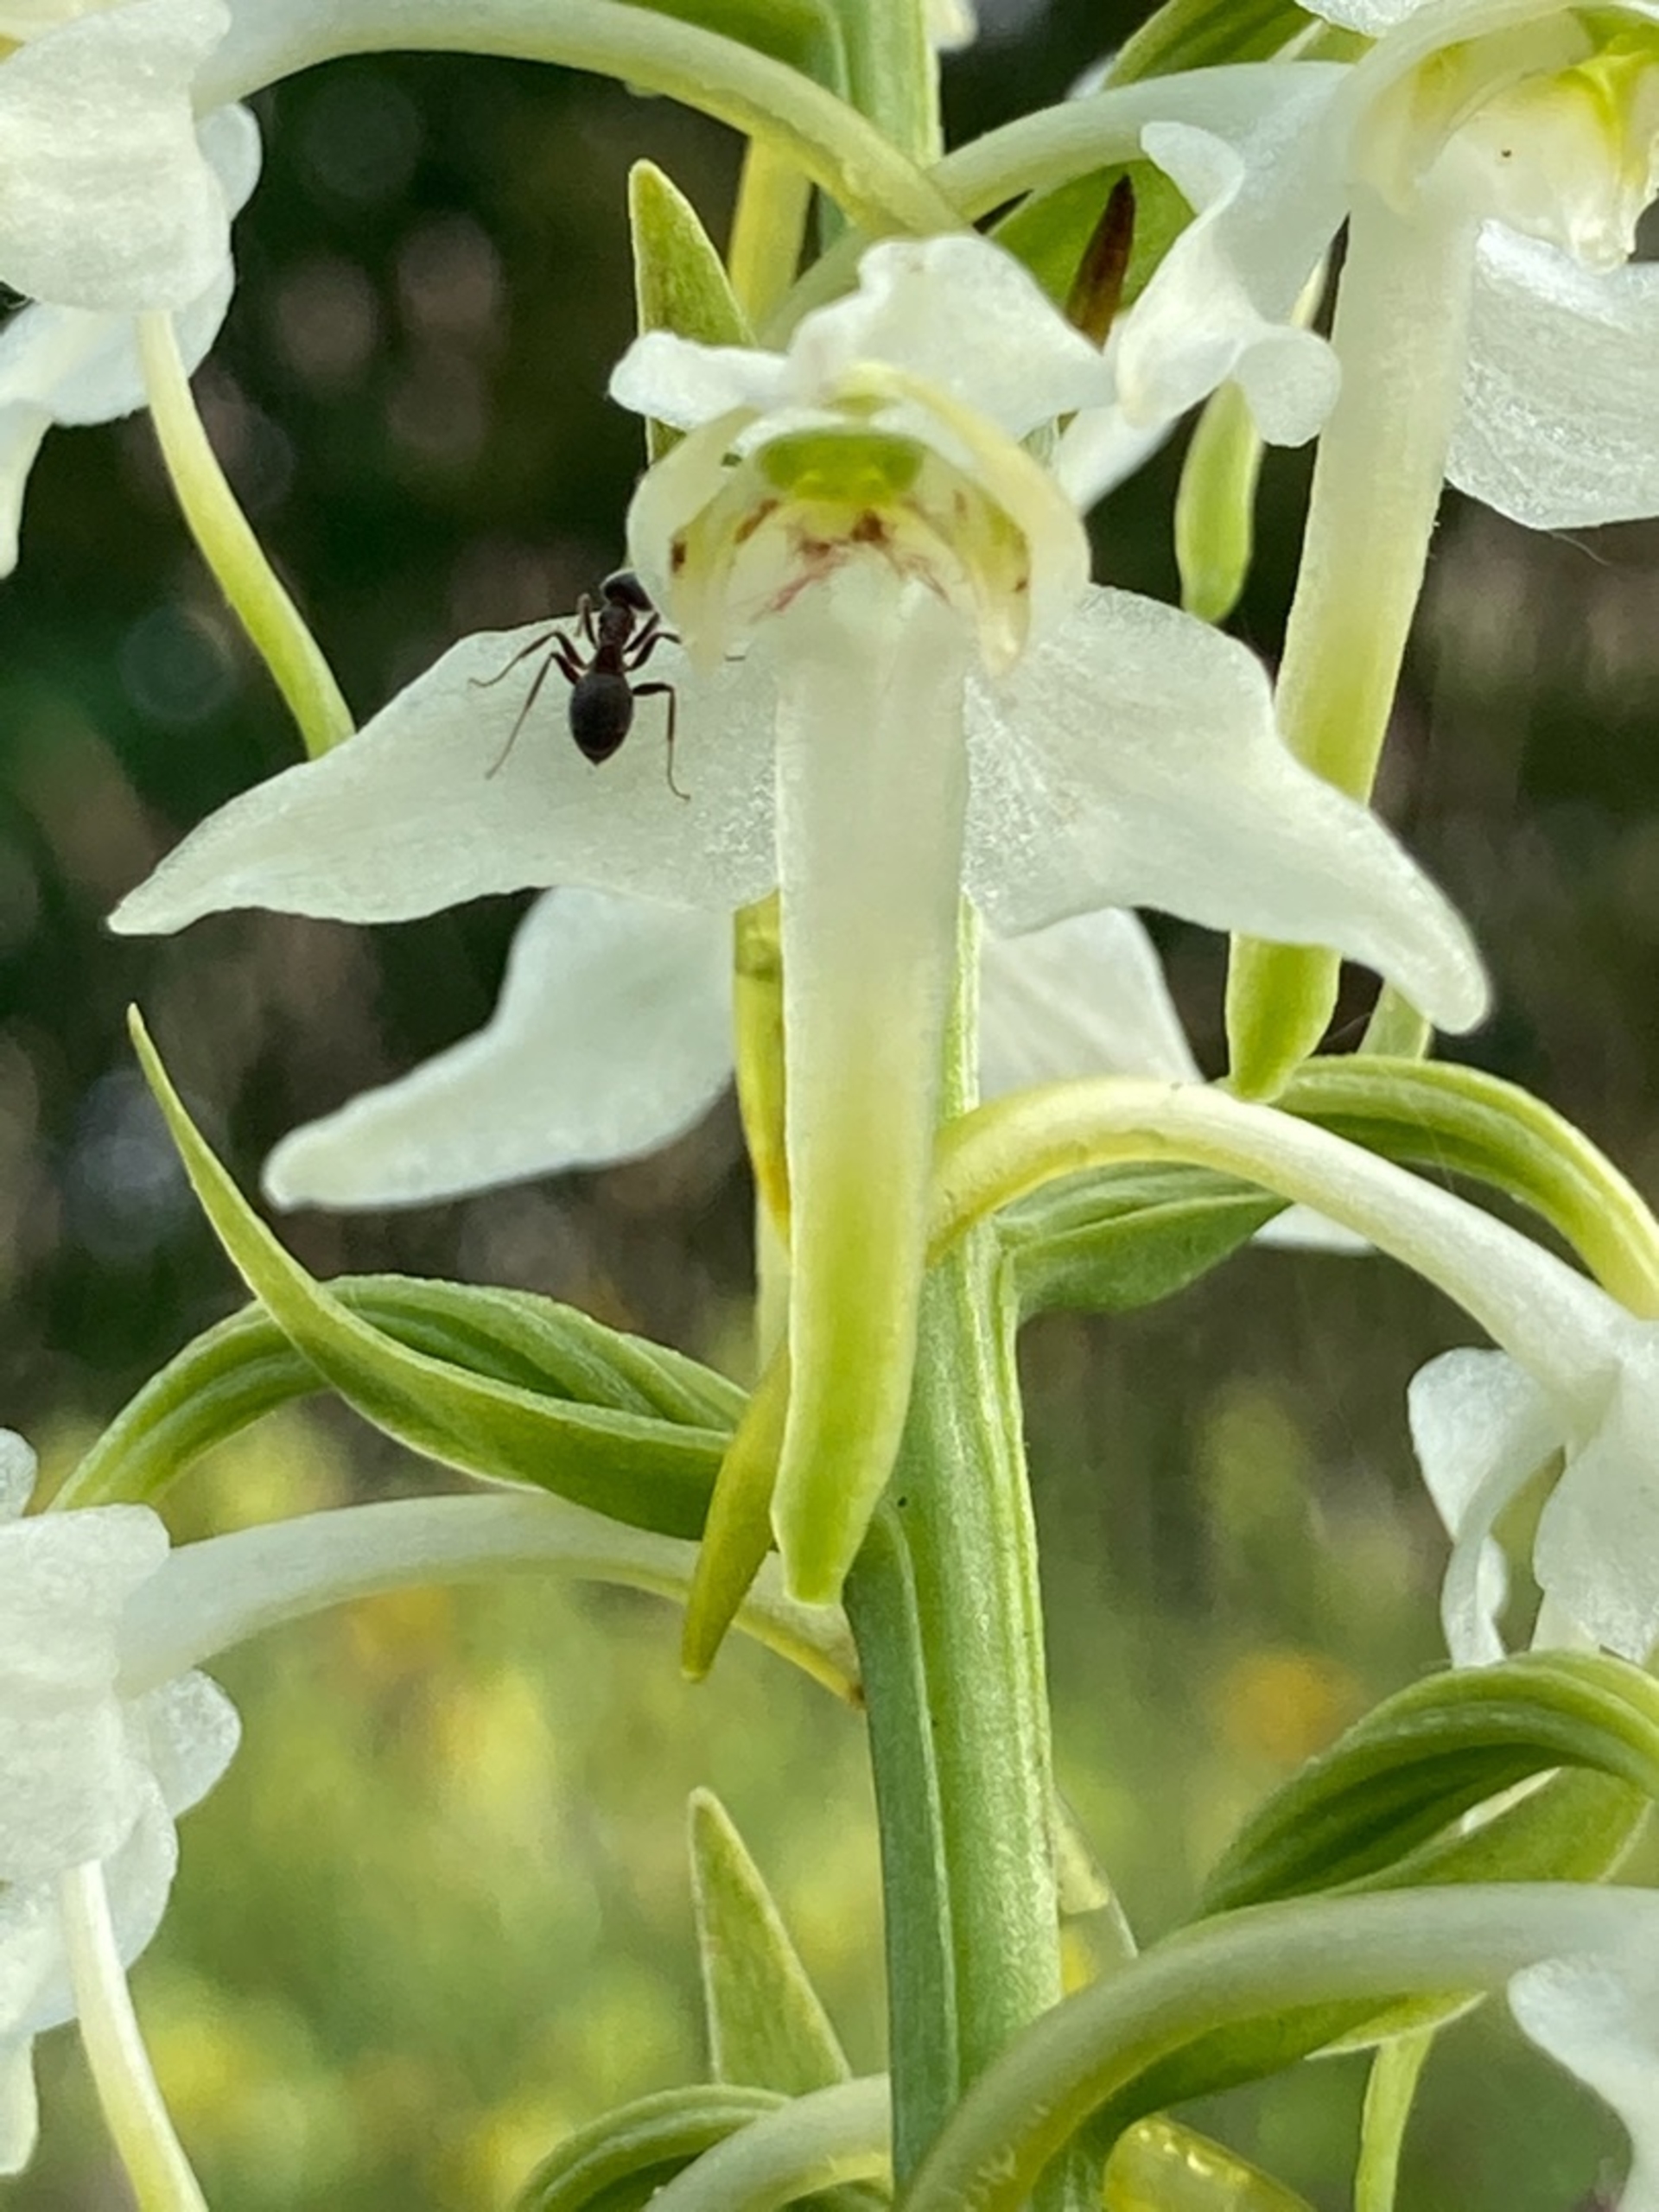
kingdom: Plantae
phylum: Tracheophyta
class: Liliopsida
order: Asparagales
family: Orchidaceae
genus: Platanthera
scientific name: Platanthera chlorantha
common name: Skov-gøgelilje
